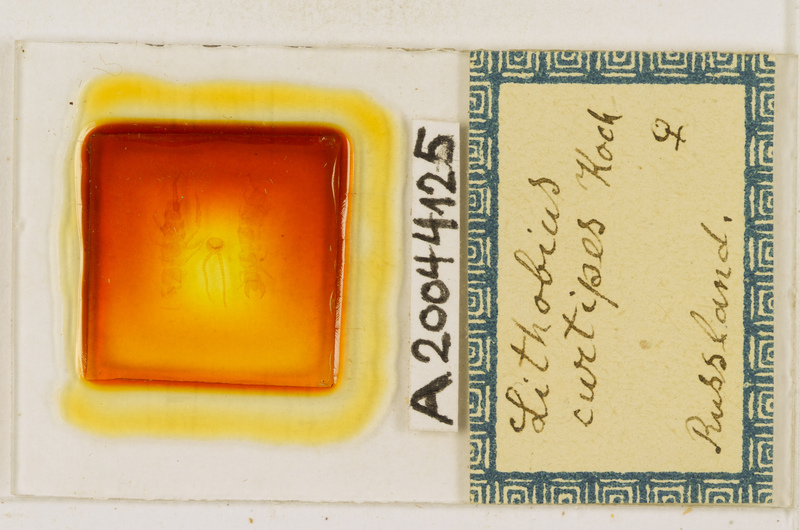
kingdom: Animalia
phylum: Arthropoda
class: Chilopoda
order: Lithobiomorpha
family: Lithobiidae
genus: Lithobius
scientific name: Lithobius curtipes
